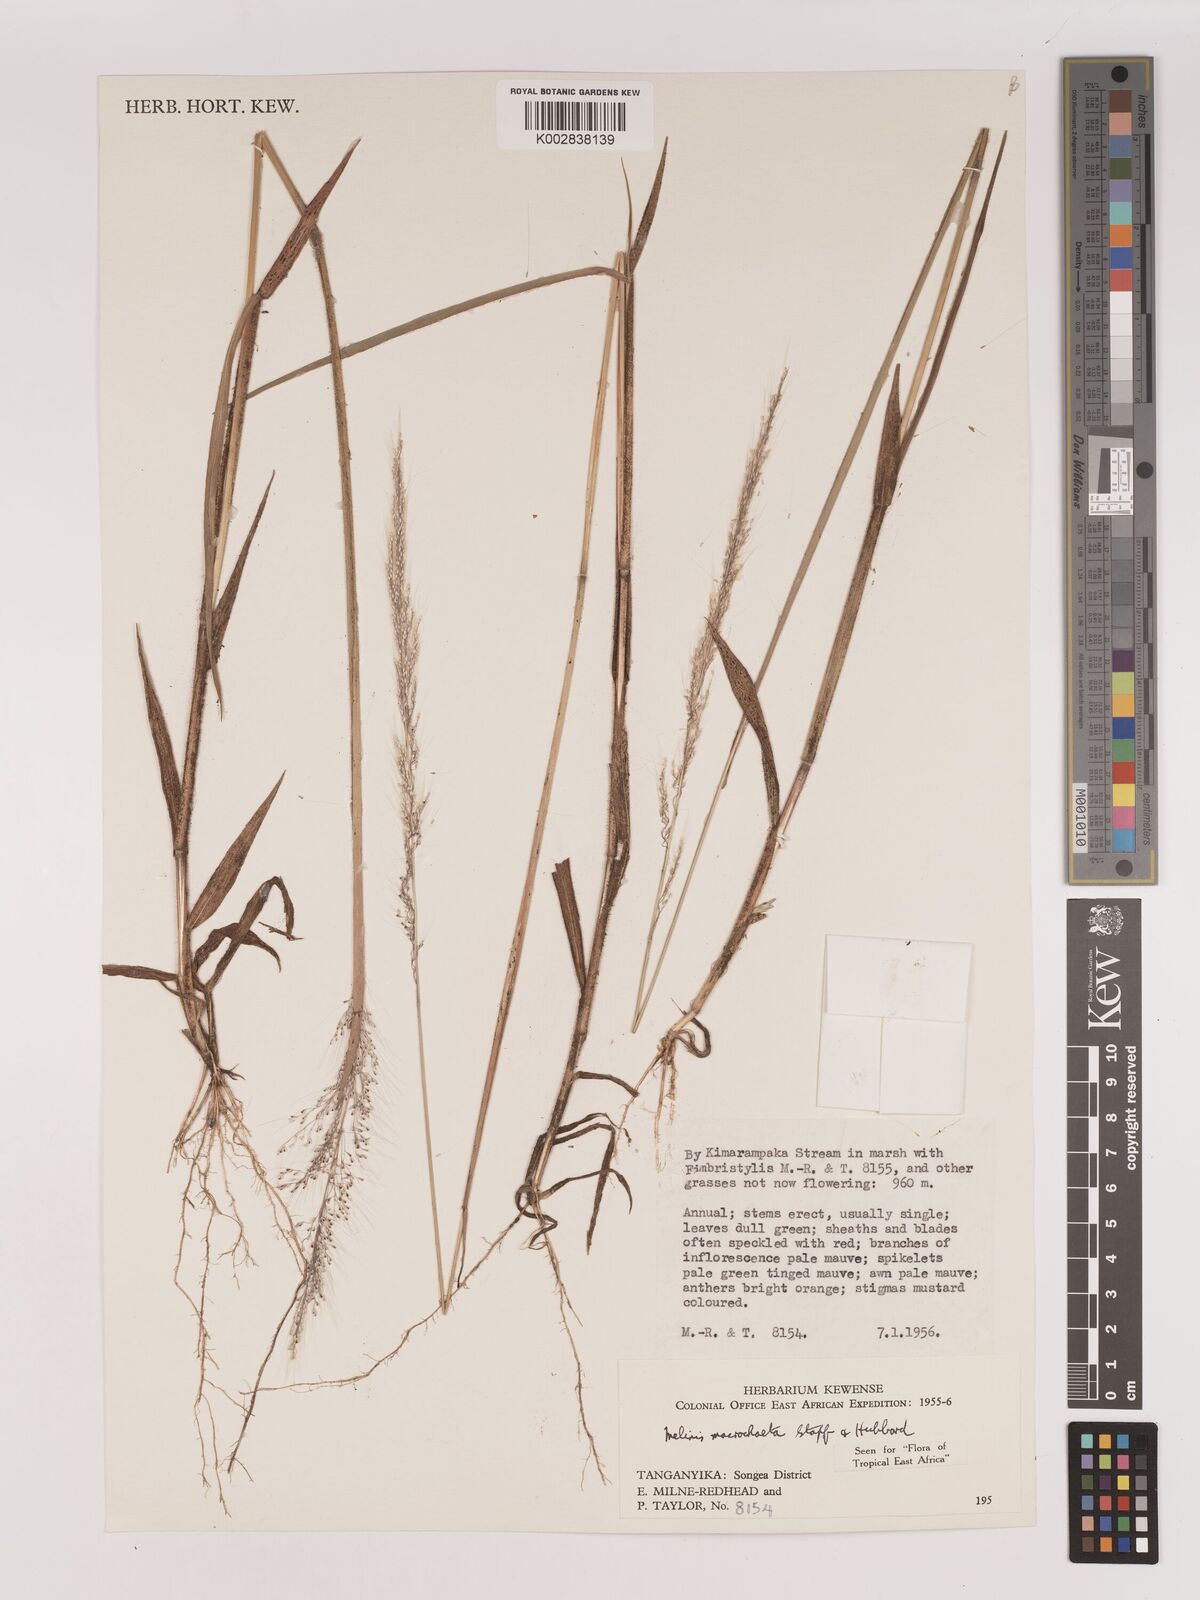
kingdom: Plantae
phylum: Tracheophyta
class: Liliopsida
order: Poales
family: Poaceae
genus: Melinis
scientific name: Melinis macrochaeta
